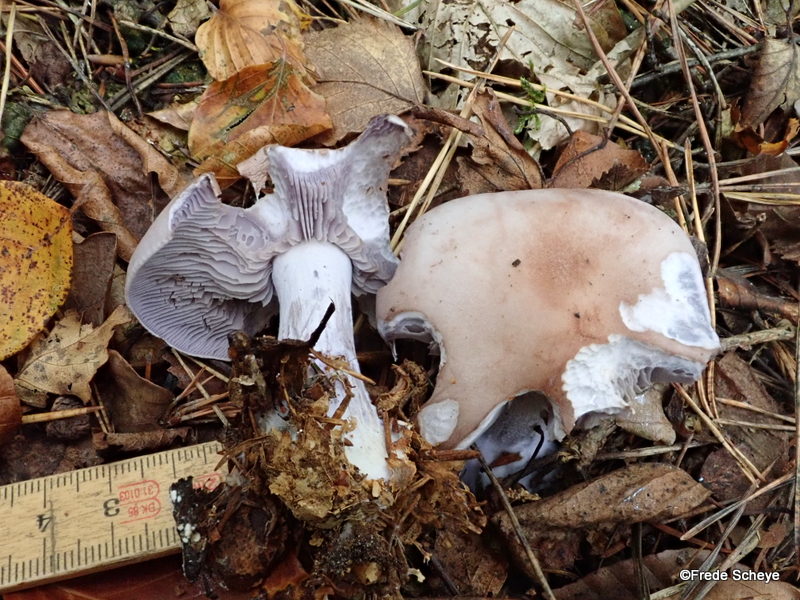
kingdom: Fungi
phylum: Basidiomycota
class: Agaricomycetes
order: Agaricales
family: Tricholomataceae
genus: Lepista
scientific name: Lepista nuda
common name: violet hekseringshat
